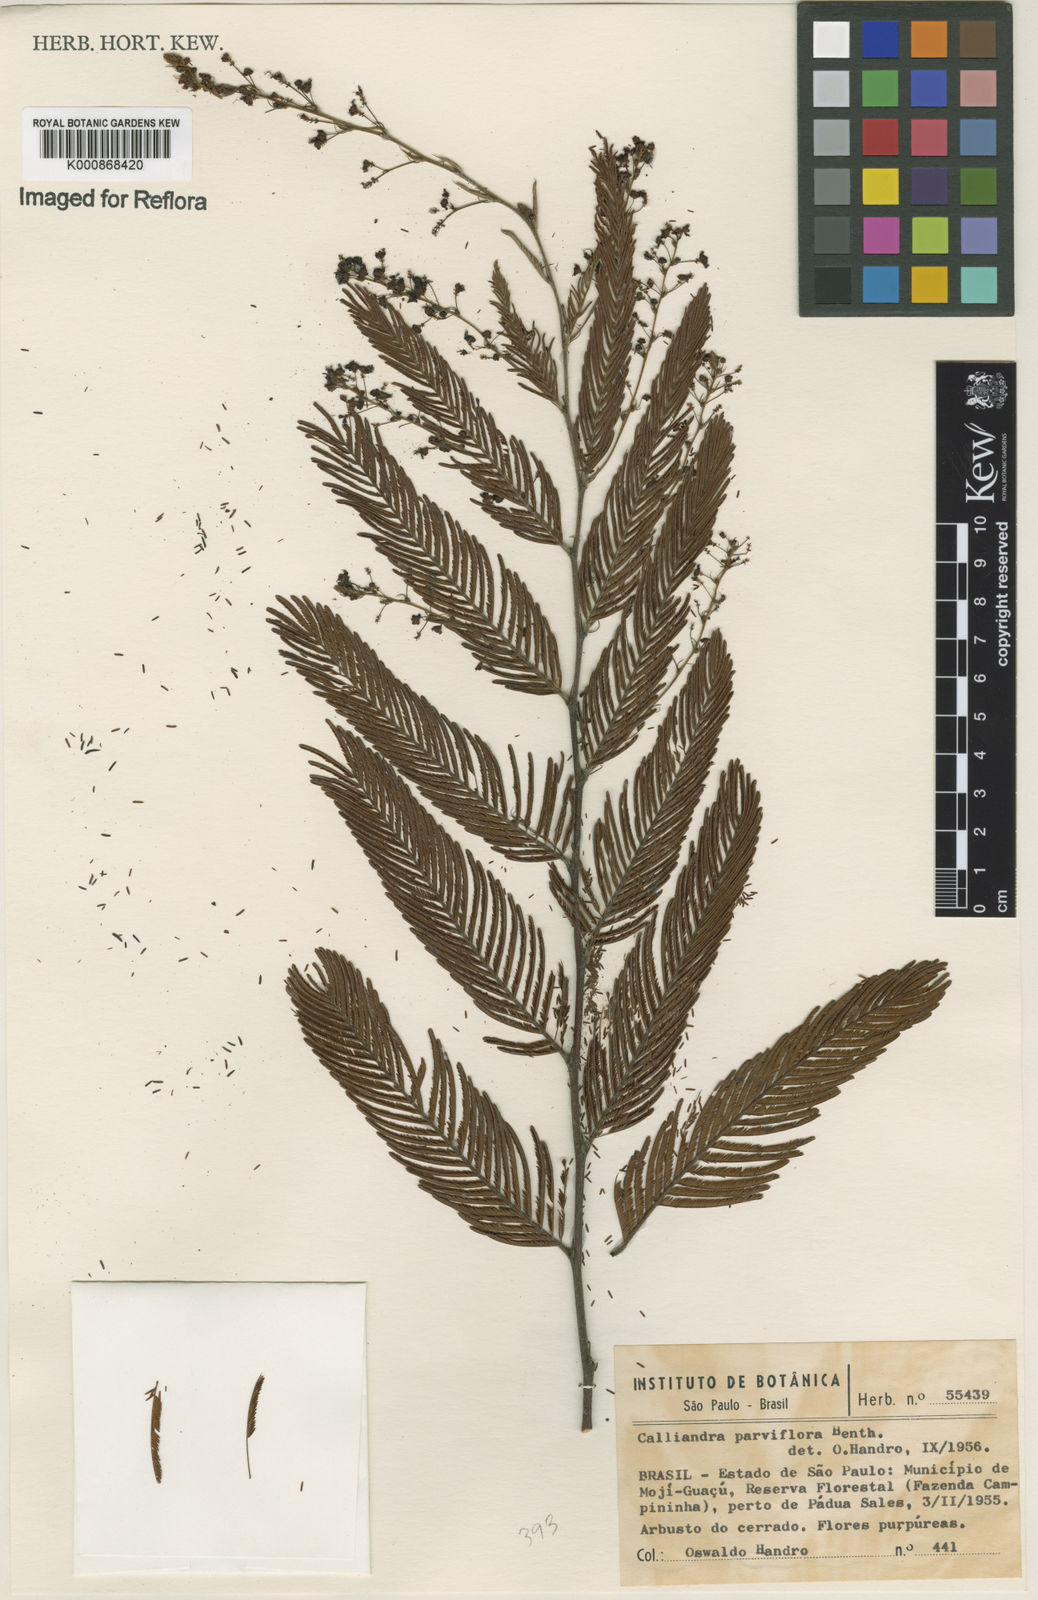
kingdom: Plantae
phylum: Tracheophyta
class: Magnoliopsida
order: Fabales
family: Fabaceae
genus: Calliandra
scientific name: Calliandra parviflora
